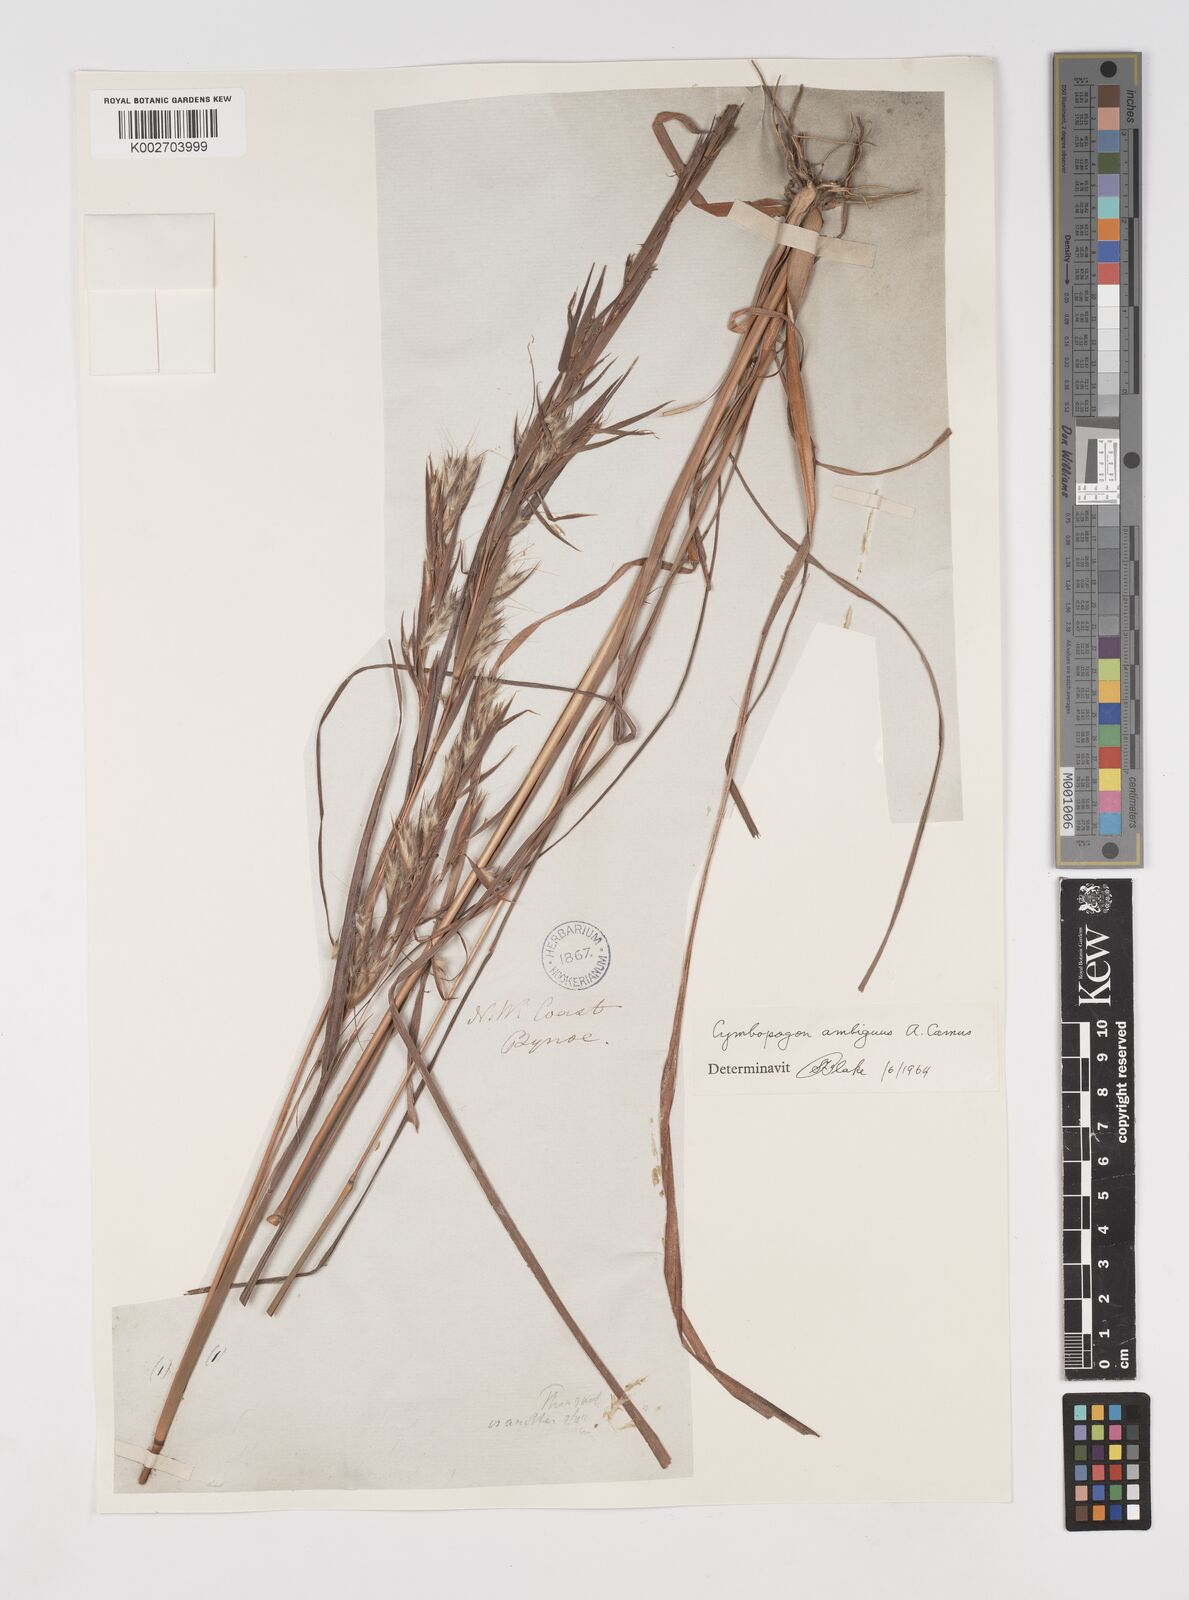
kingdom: Plantae
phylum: Tracheophyta
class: Liliopsida
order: Poales
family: Poaceae
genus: Cymbopogon
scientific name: Cymbopogon ambiguus
